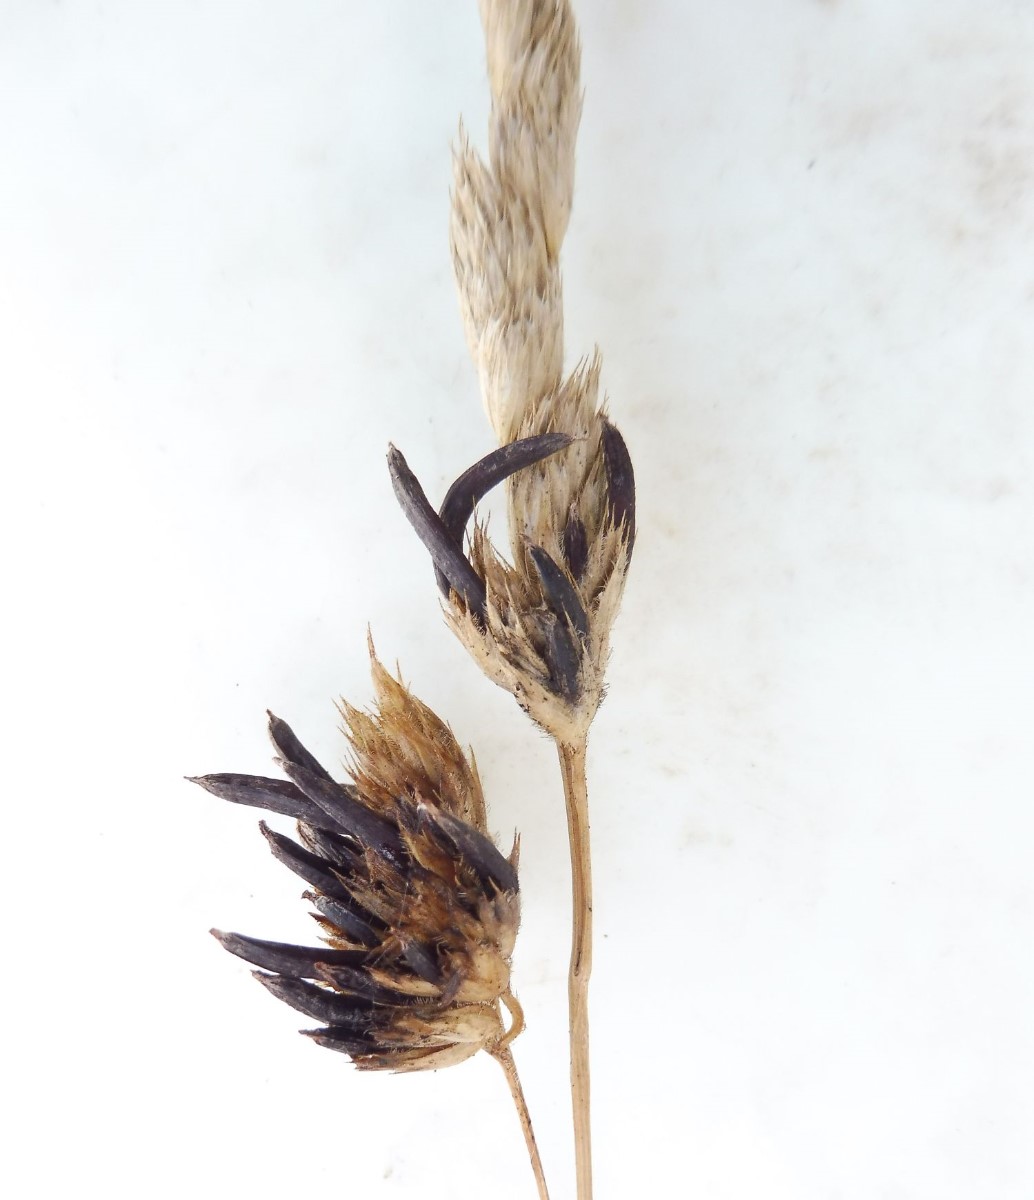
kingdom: Fungi
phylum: Ascomycota
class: Sordariomycetes
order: Hypocreales
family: Clavicipitaceae
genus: Claviceps
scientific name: Claviceps purpurea
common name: almindelig meldrøjer
